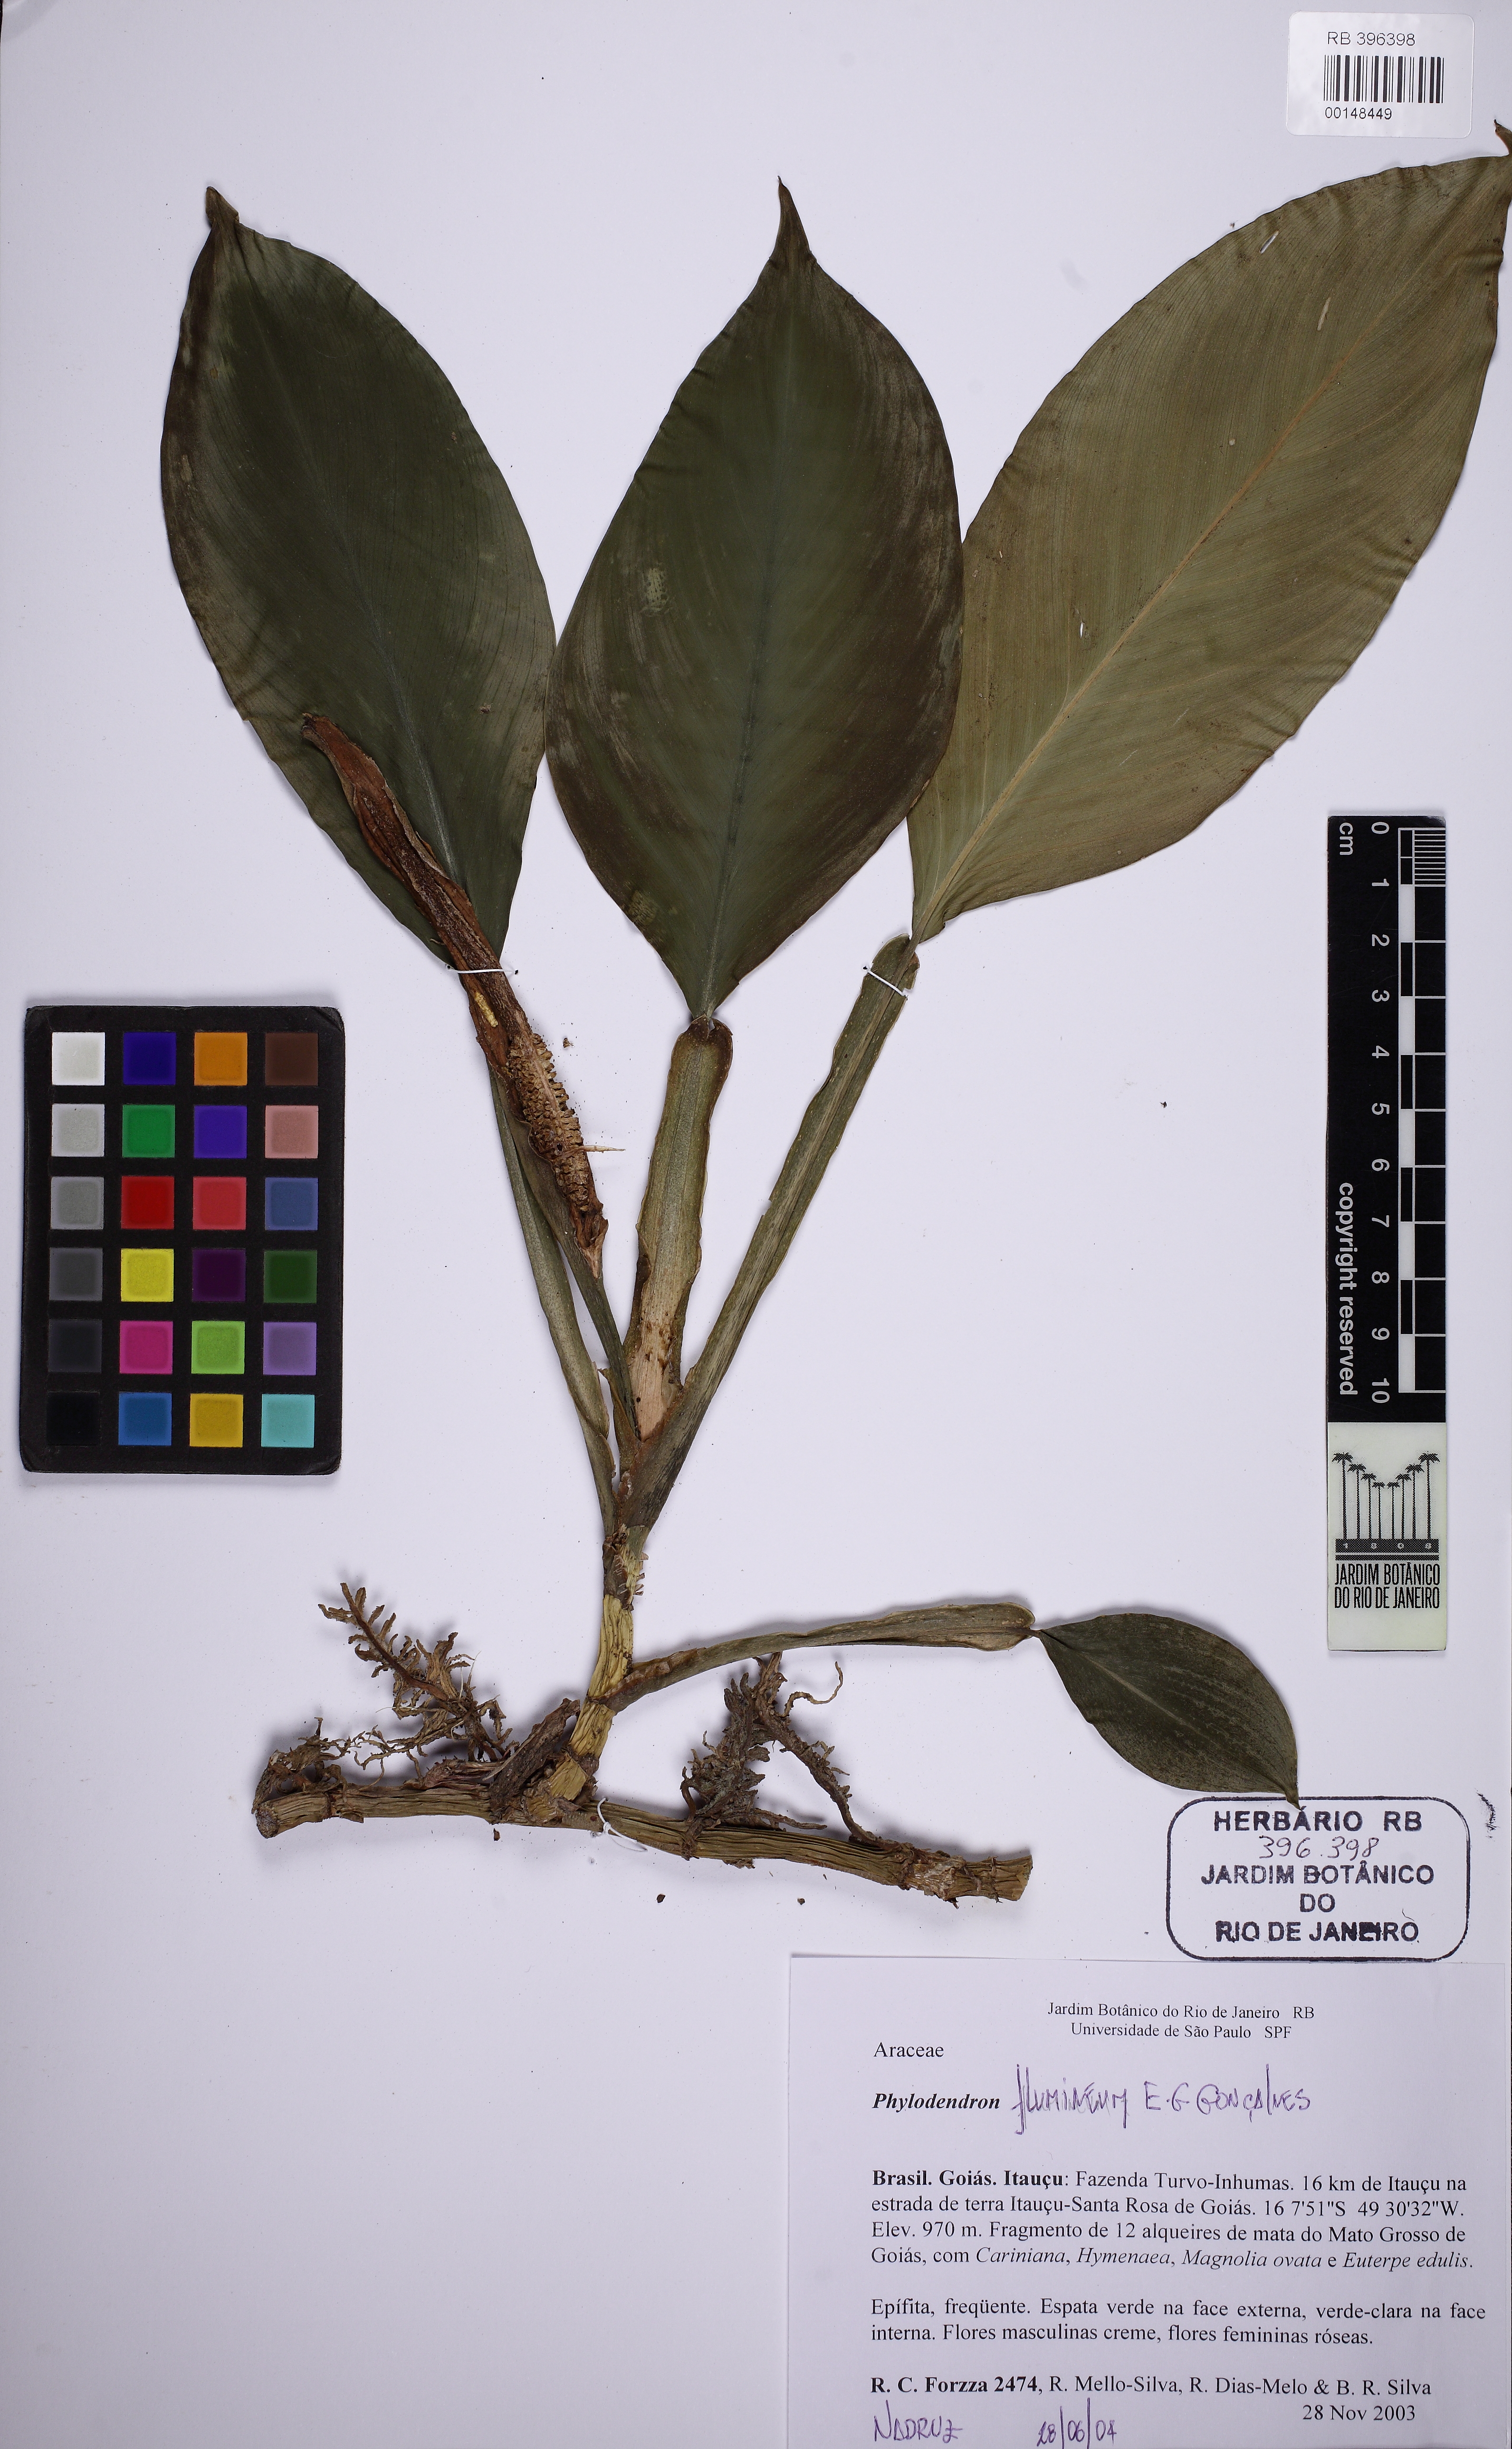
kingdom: Plantae
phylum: Tracheophyta
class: Liliopsida
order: Alismatales
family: Araceae
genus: Philodendron
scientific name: Philodendron flumineum
